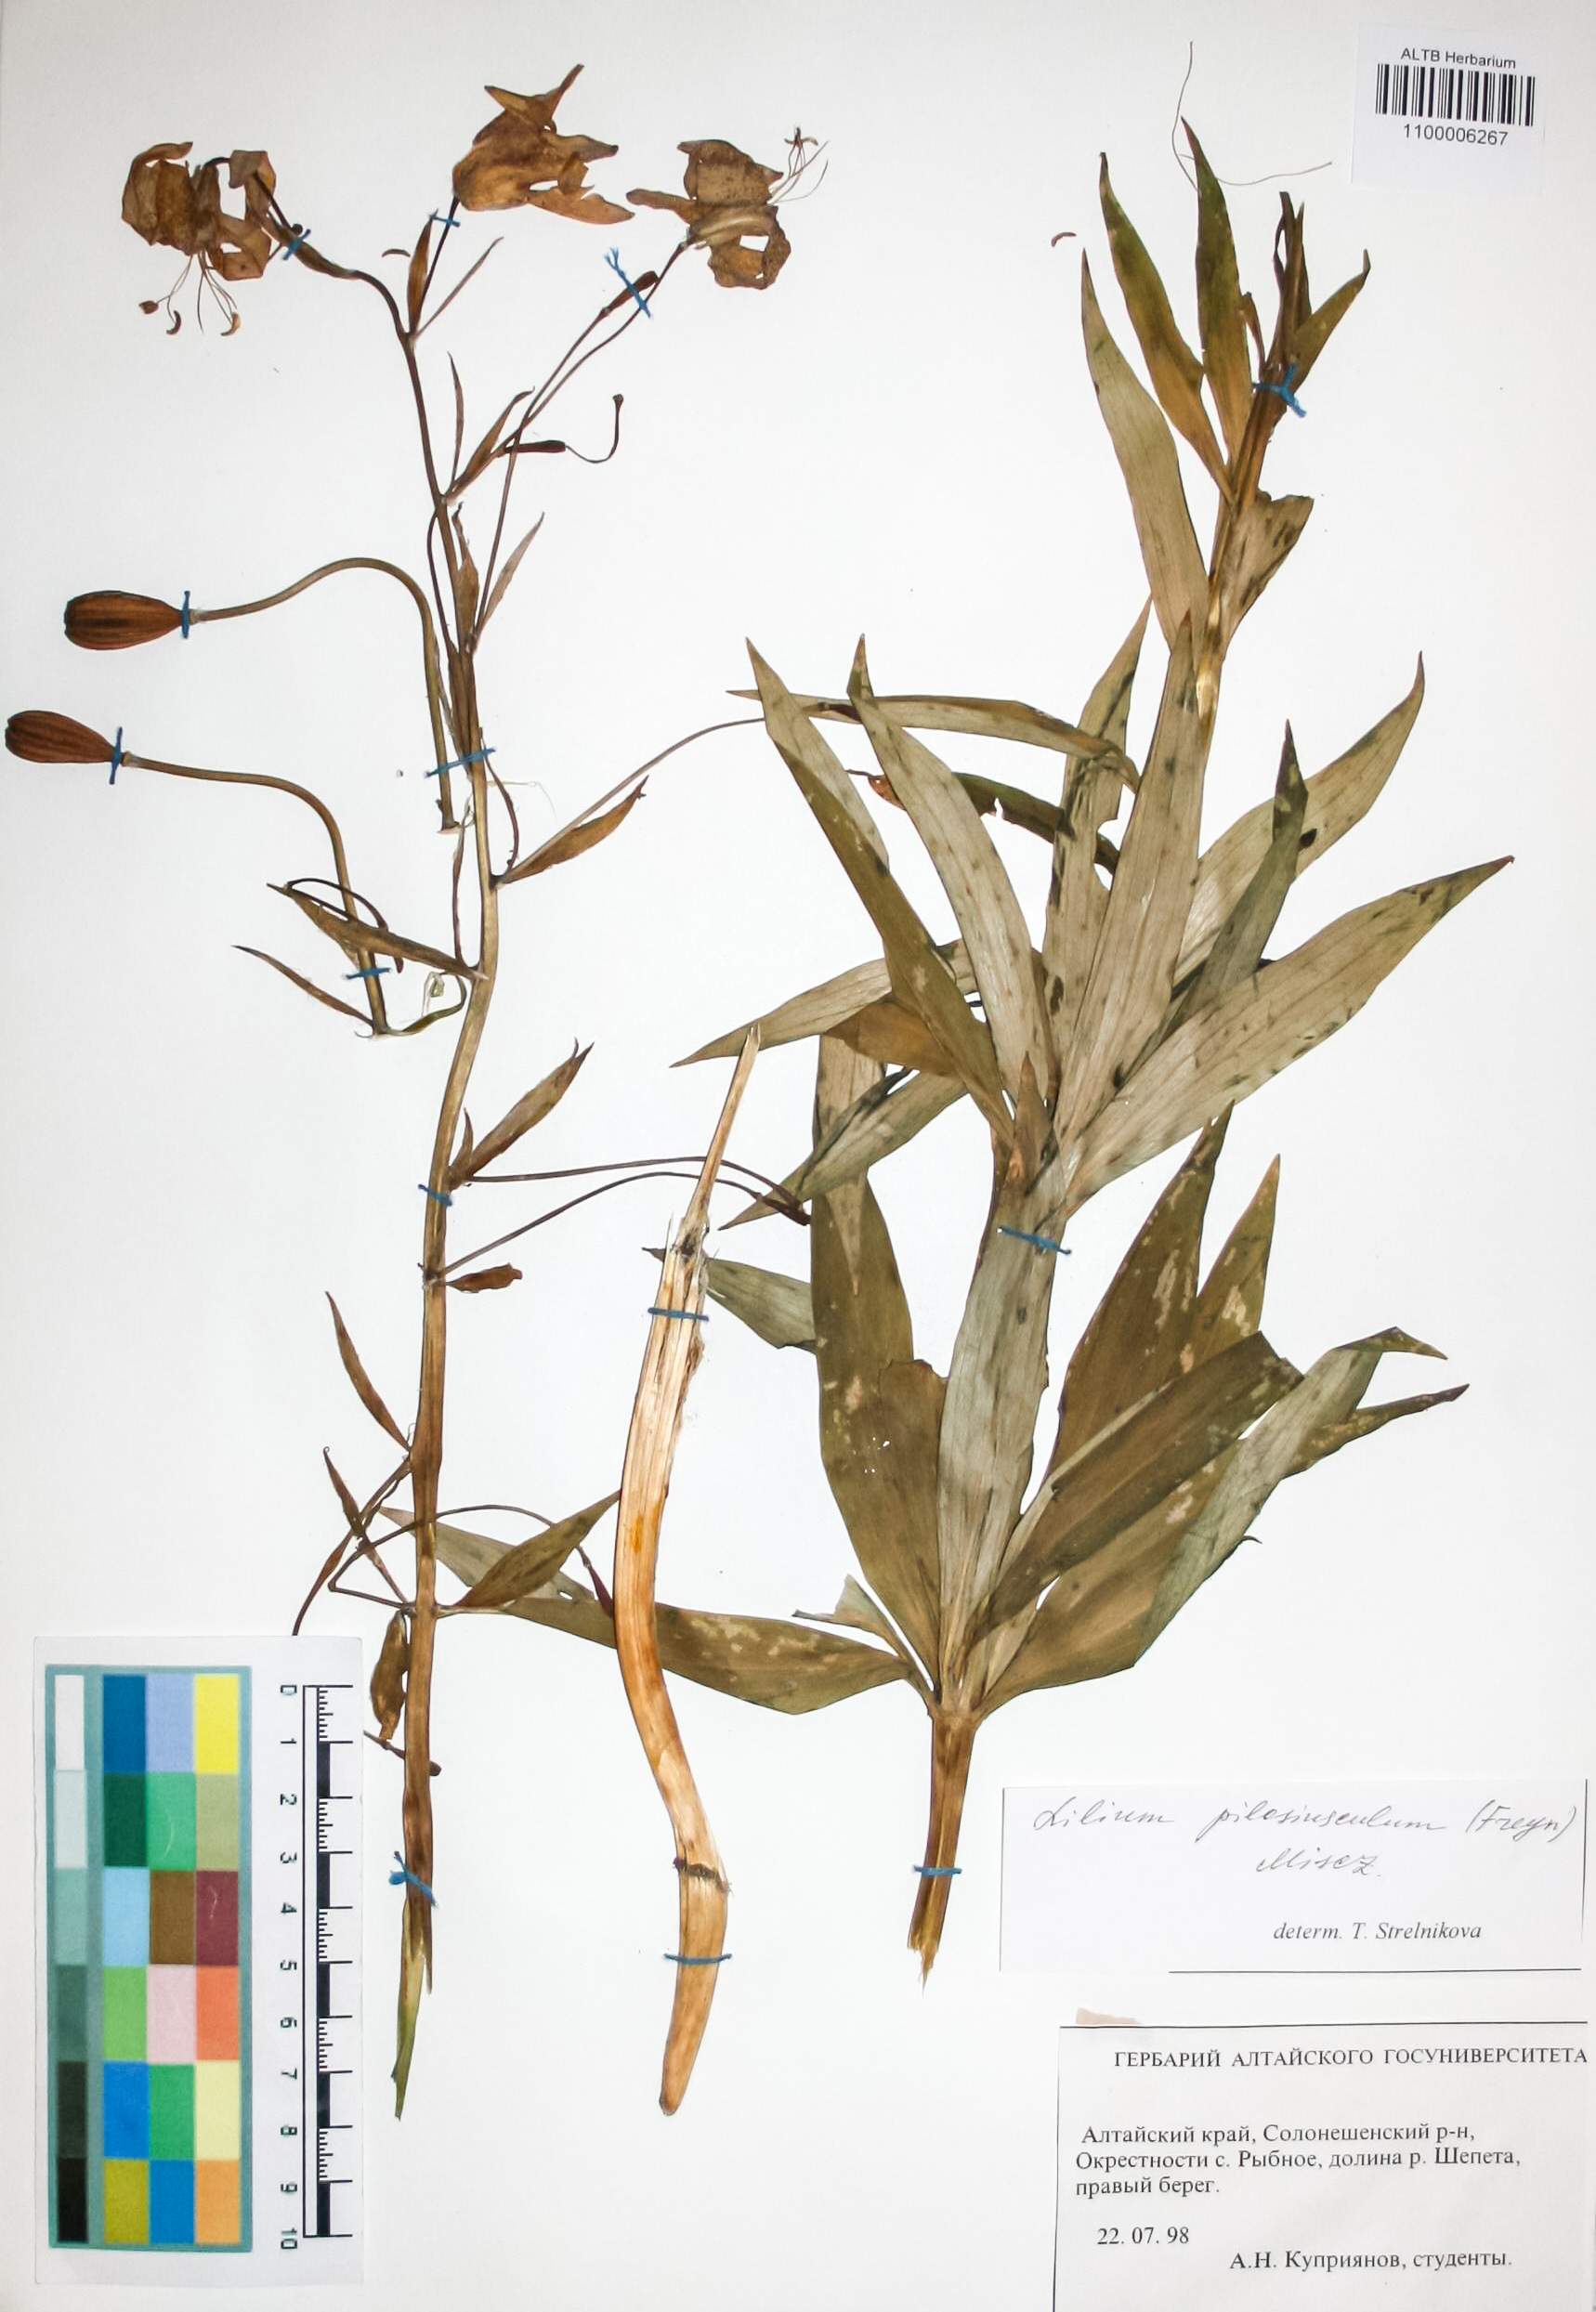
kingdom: Plantae
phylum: Tracheophyta
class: Liliopsida
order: Liliales
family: Liliaceae
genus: Lilium
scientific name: Lilium martagon
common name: Martagon lily
